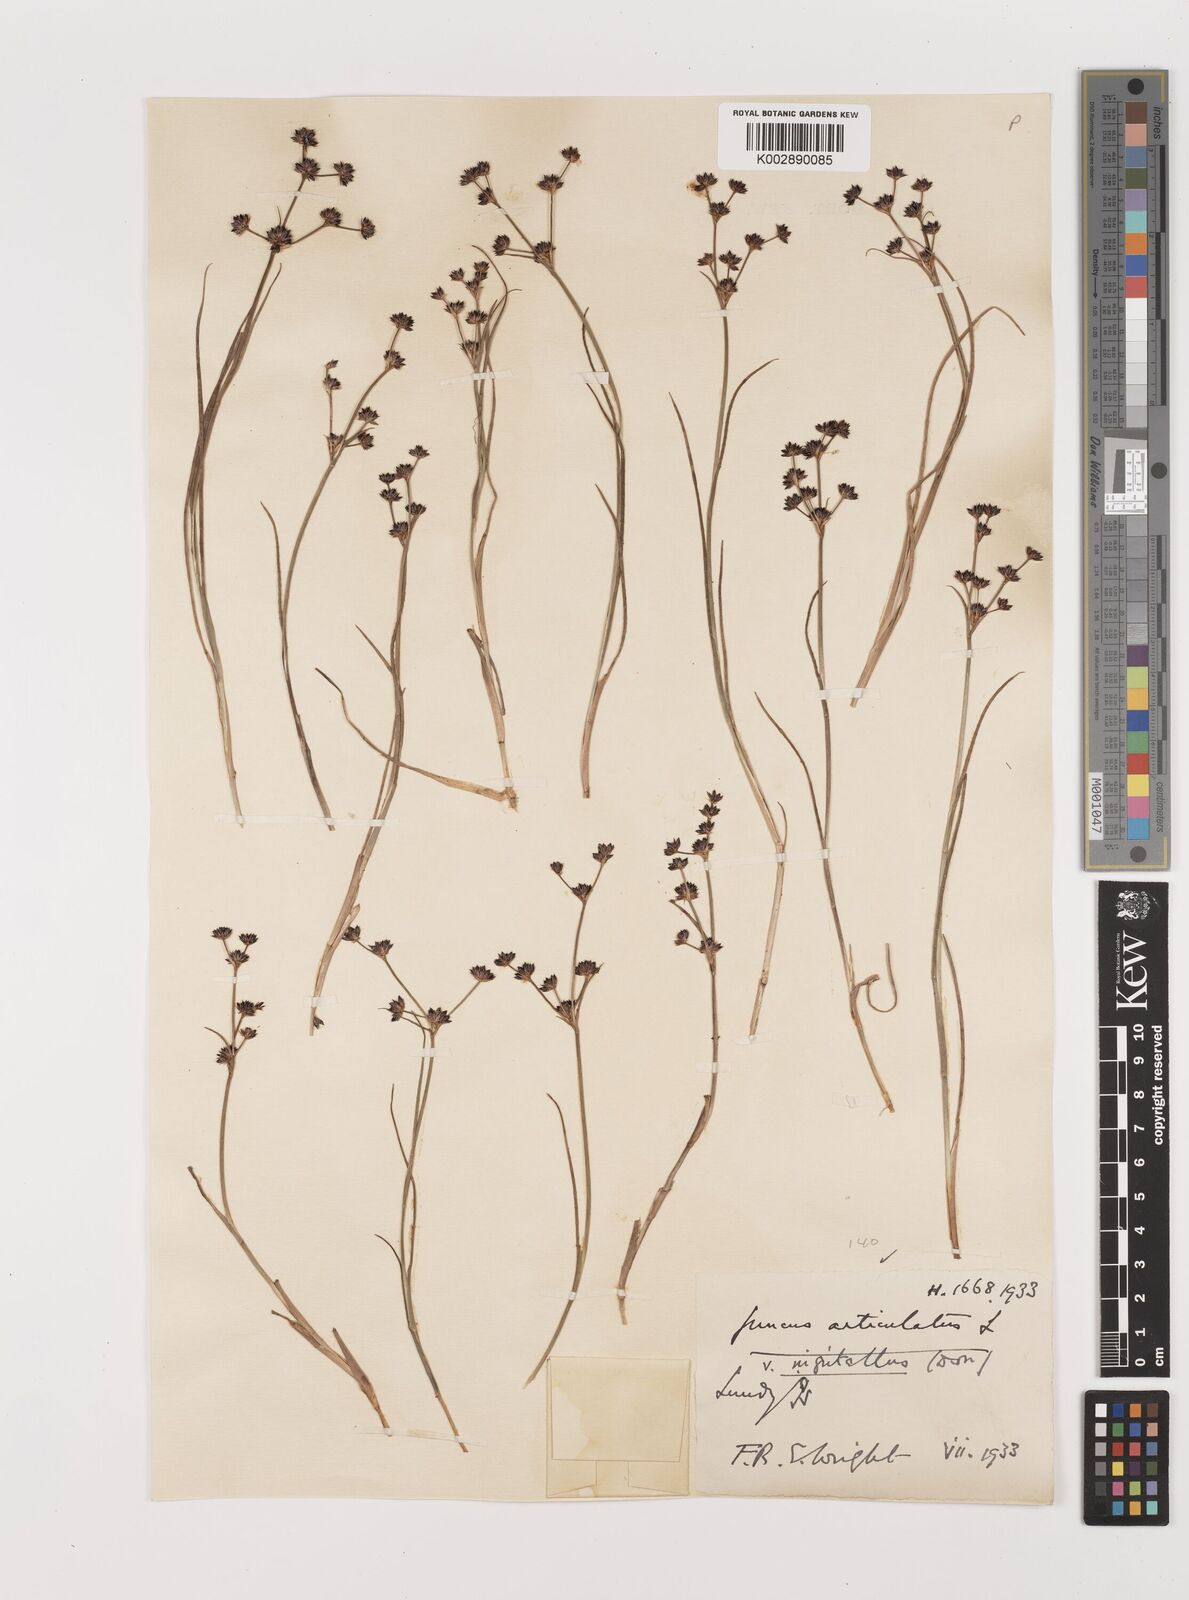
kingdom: Plantae
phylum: Tracheophyta
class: Liliopsida
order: Poales
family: Juncaceae
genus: Juncus
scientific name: Juncus articulatus
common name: Jointed rush
